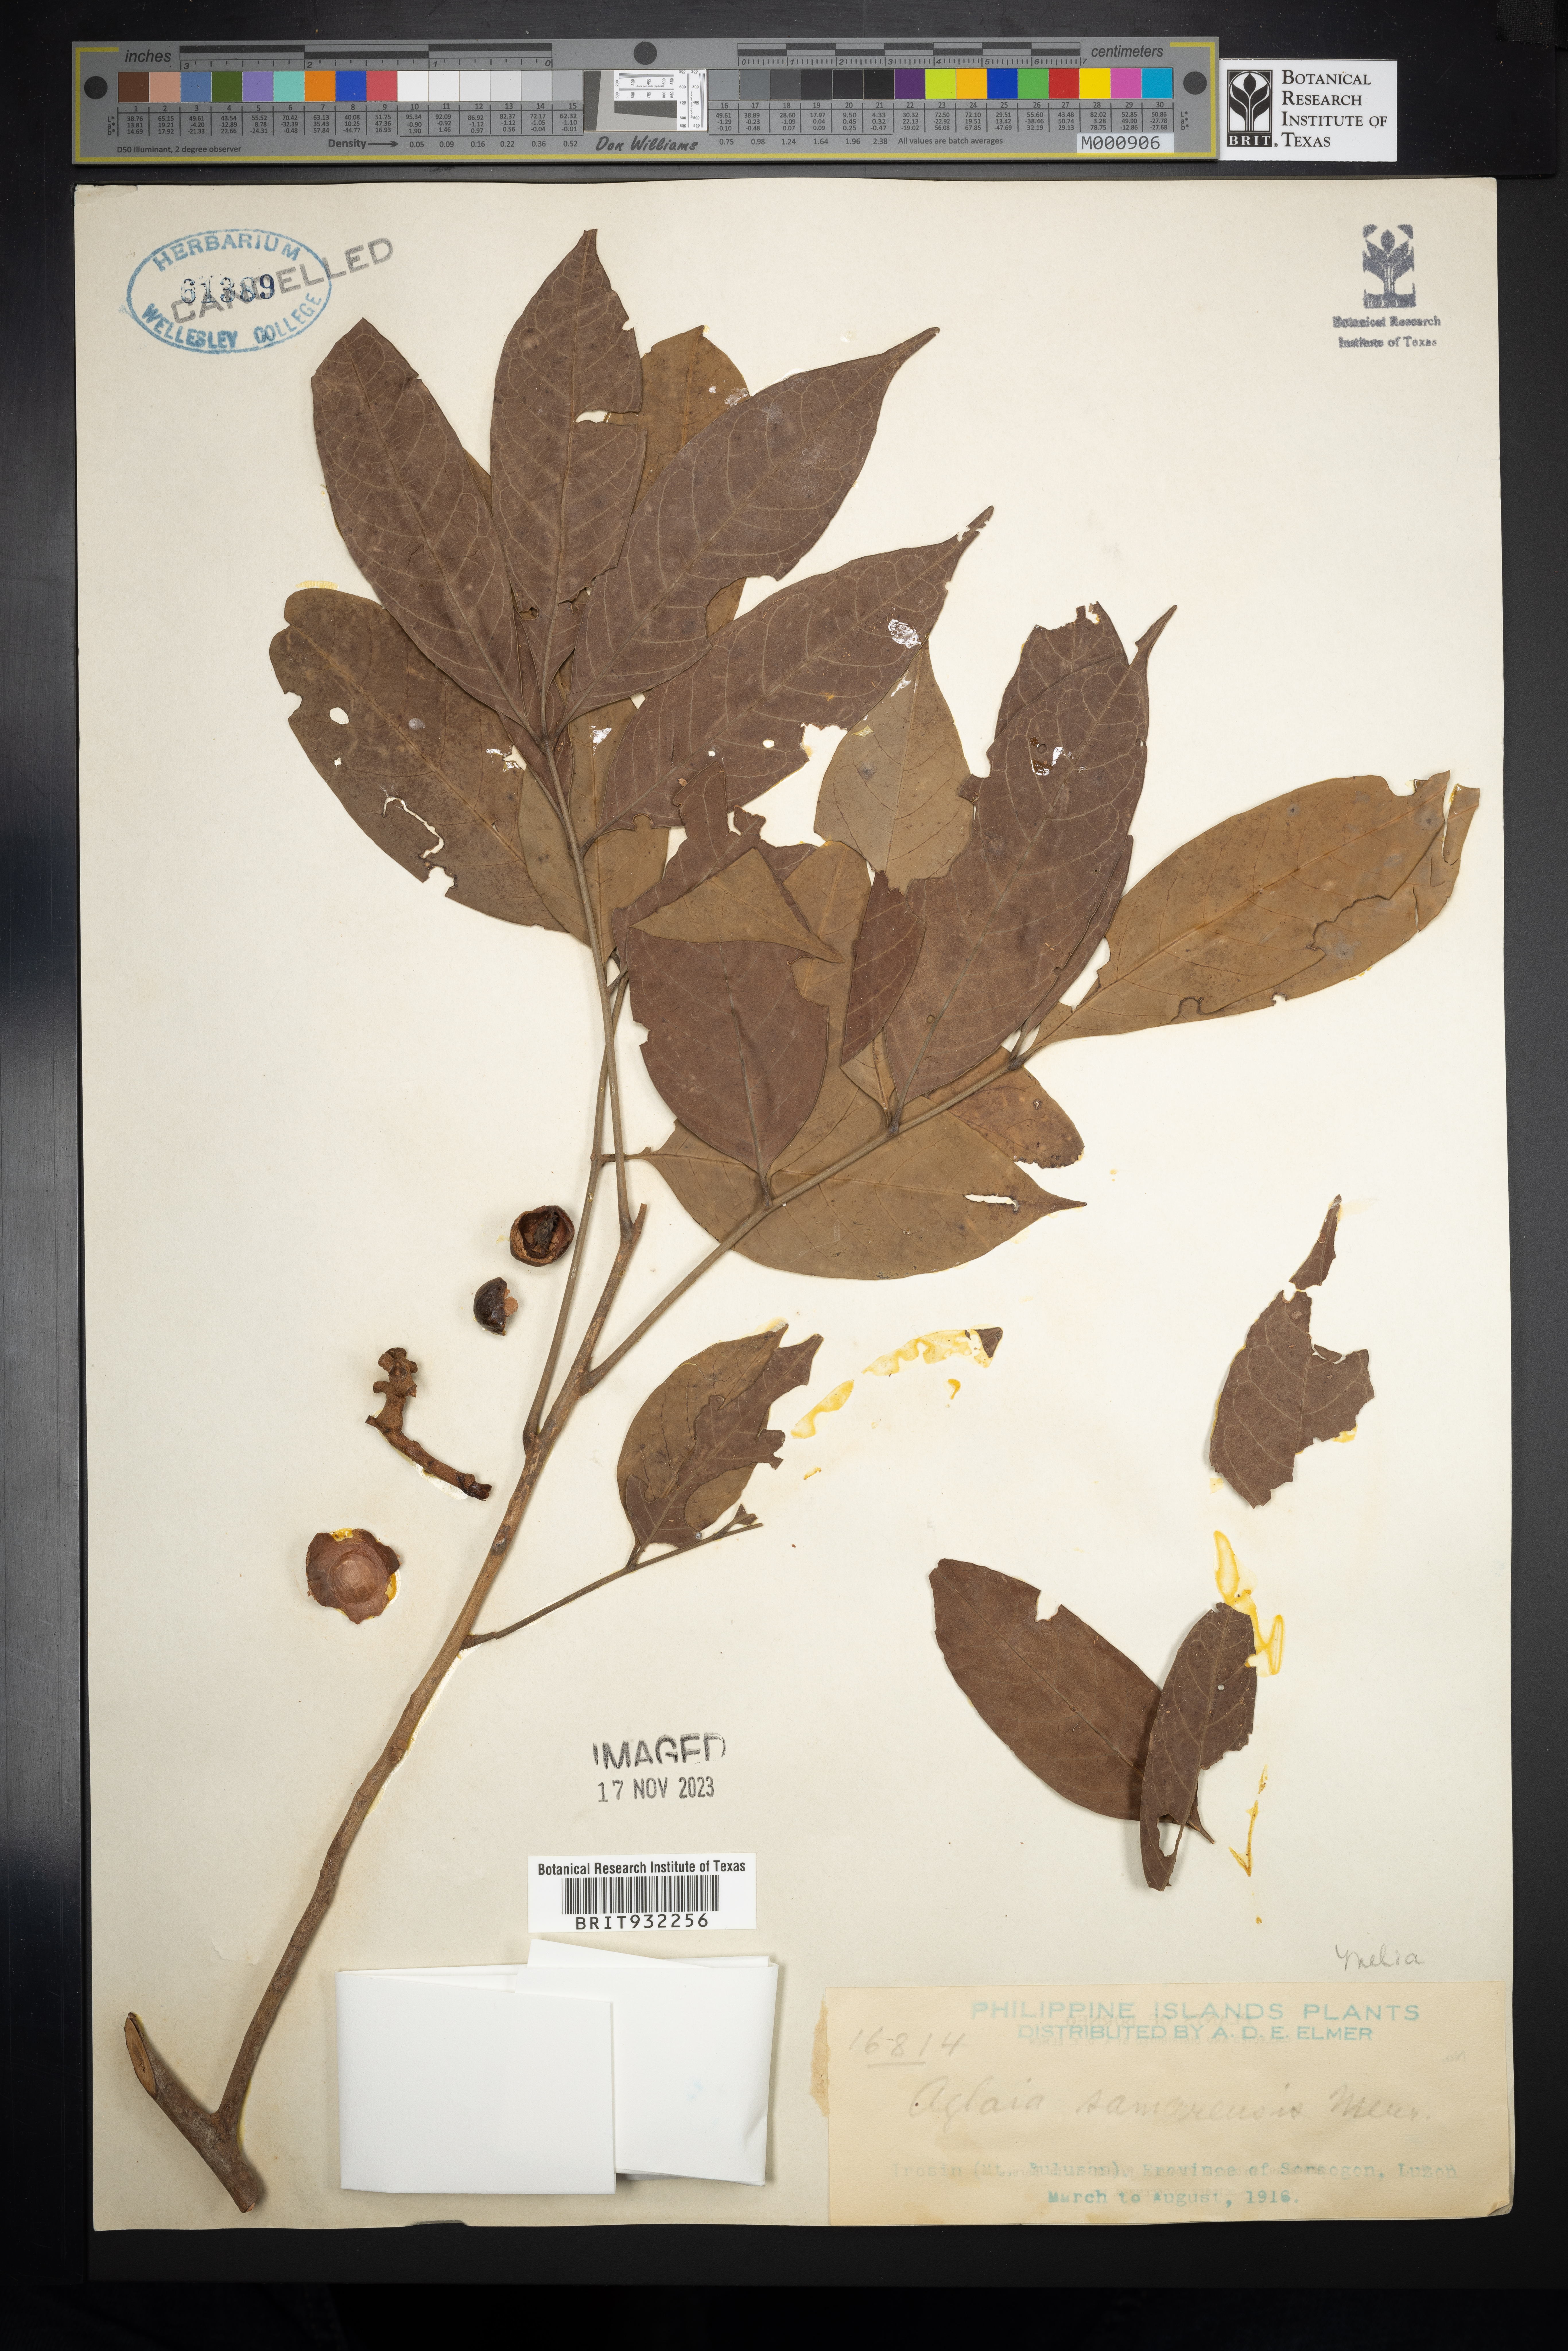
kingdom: Plantae
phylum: Tracheophyta
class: Magnoliopsida
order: Sapindales
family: Meliaceae
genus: Aglaia
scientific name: Aglaia
